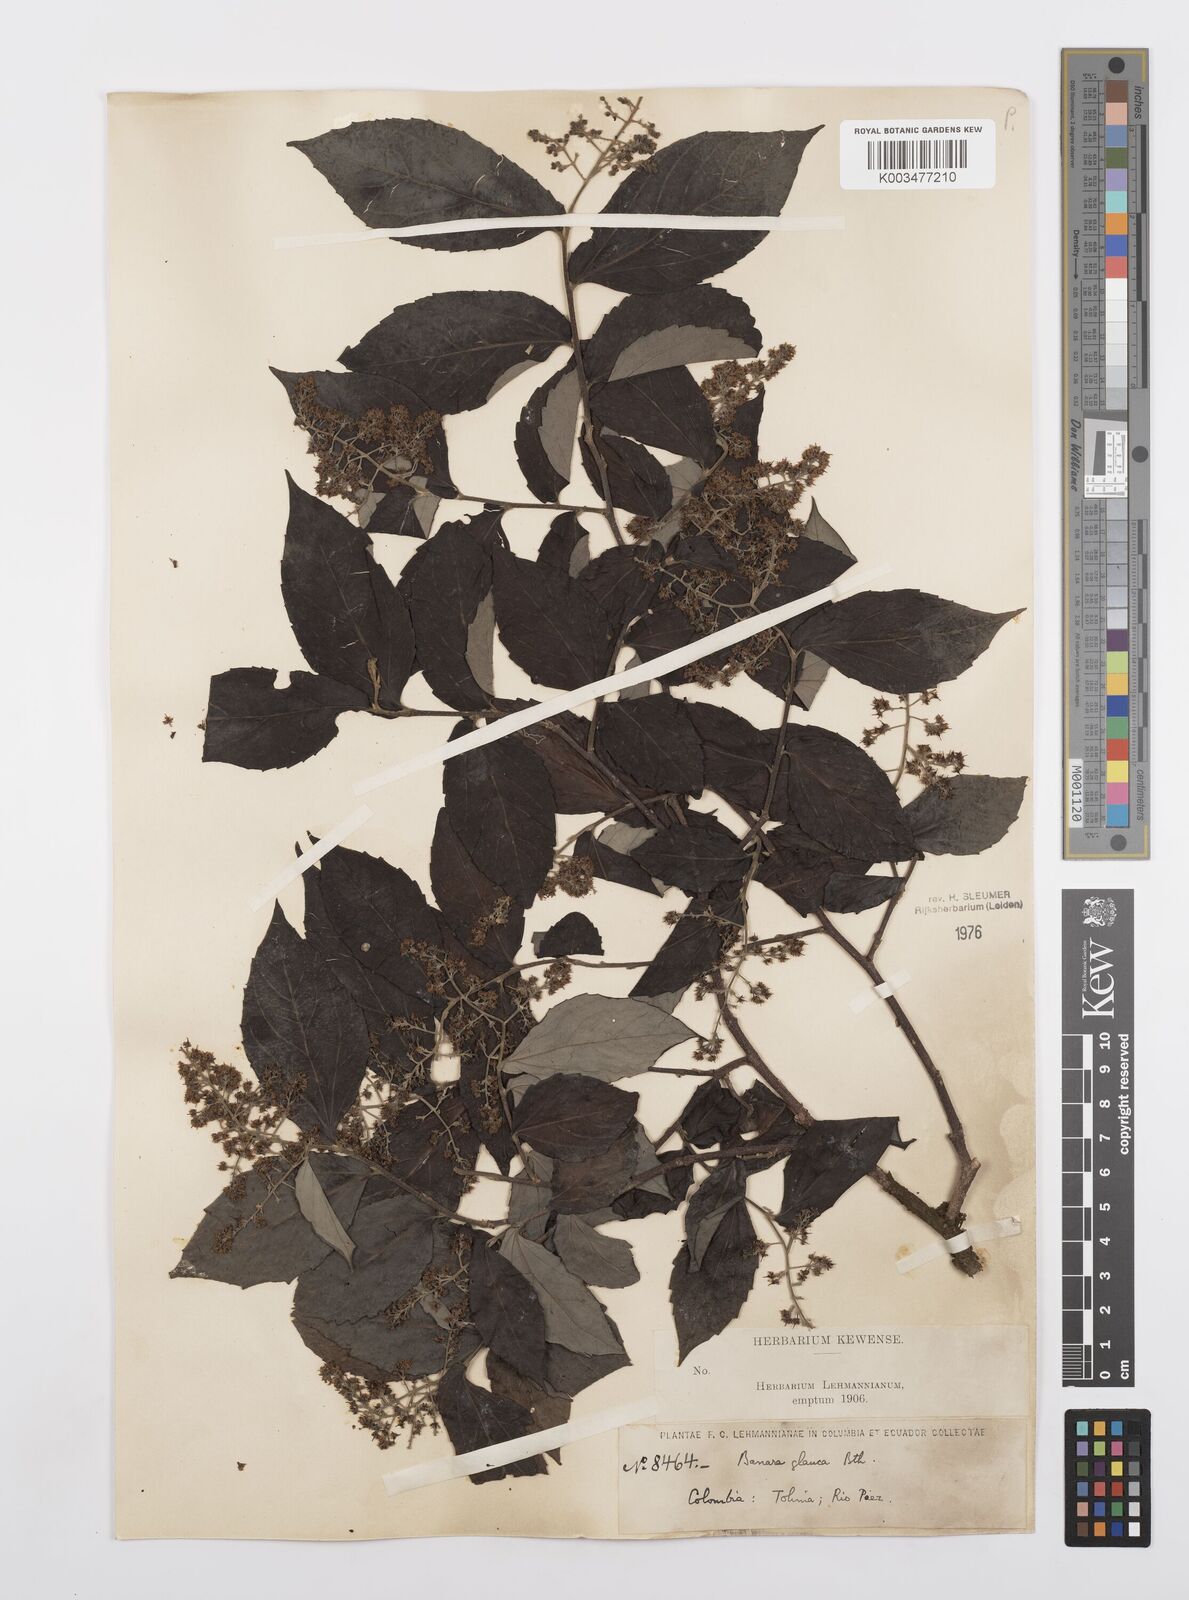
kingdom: Plantae
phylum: Tracheophyta
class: Magnoliopsida
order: Malpighiales
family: Salicaceae
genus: Banara
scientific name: Banara glauca
